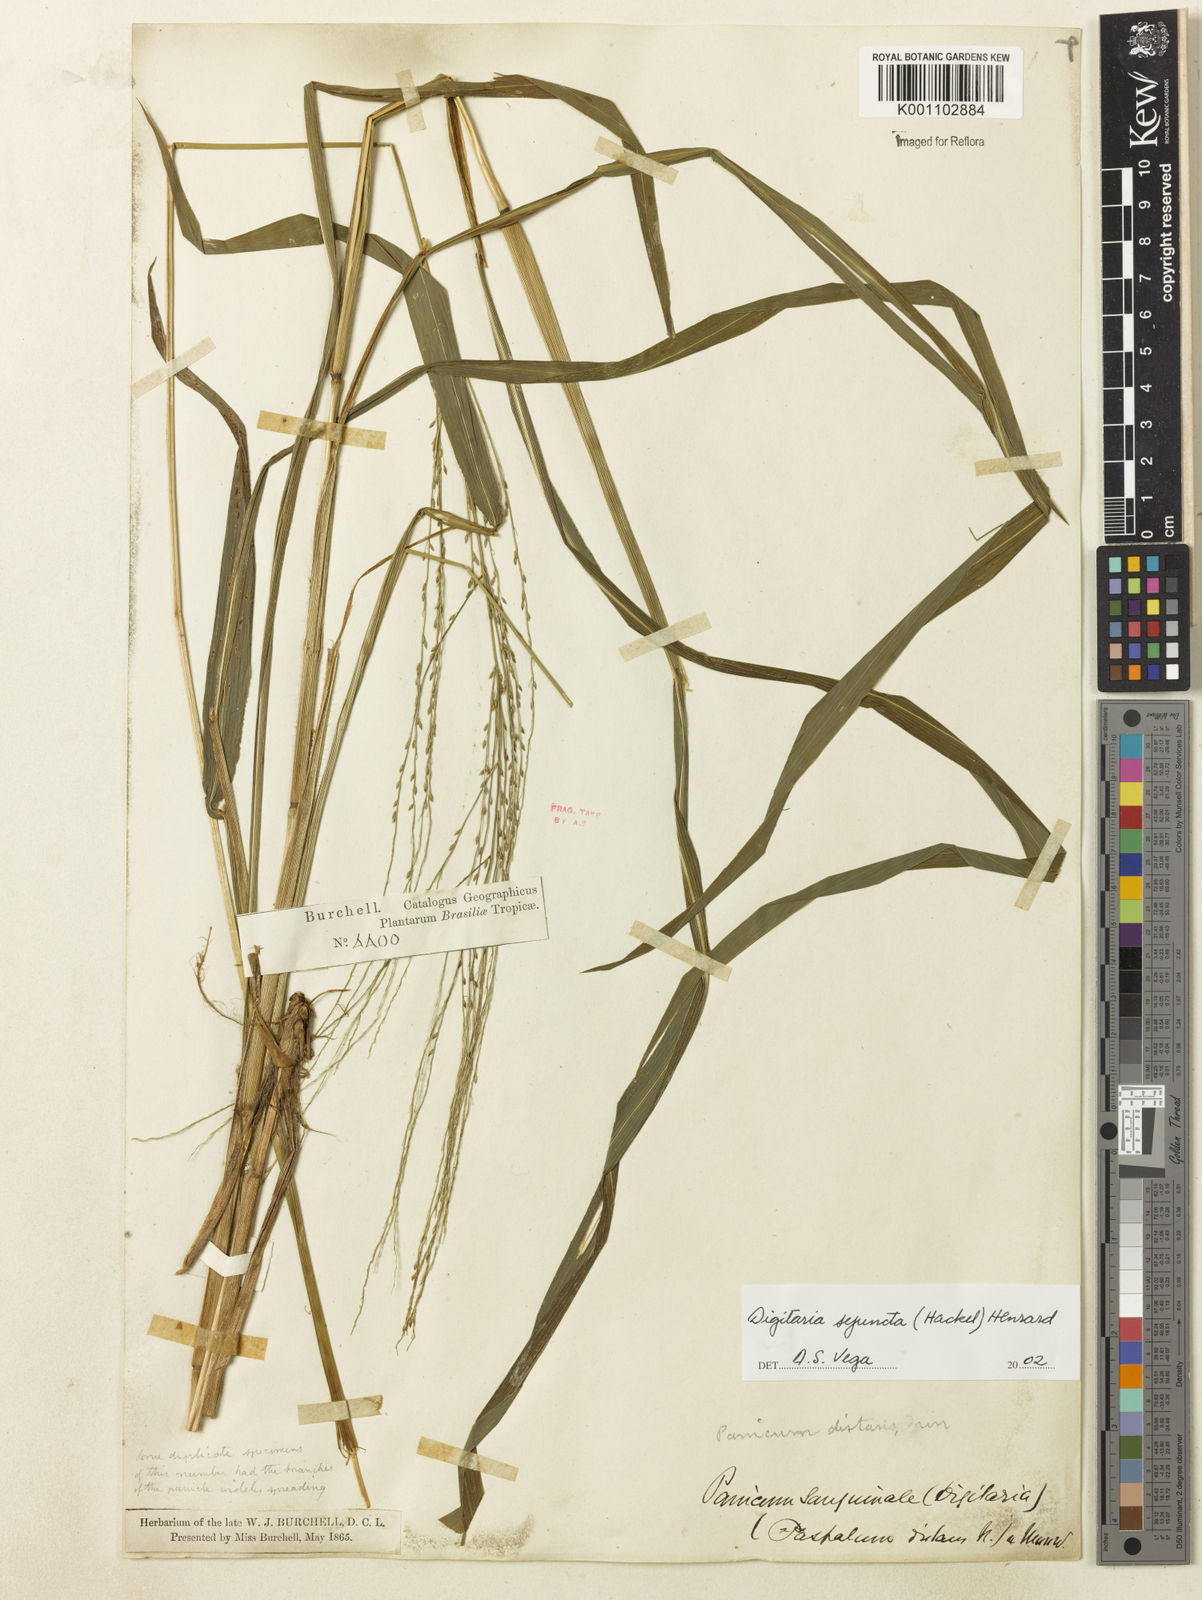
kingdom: Plantae
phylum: Tracheophyta
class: Liliopsida
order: Poales
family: Poaceae
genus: Digitaria
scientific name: Digitaria sejuncta
